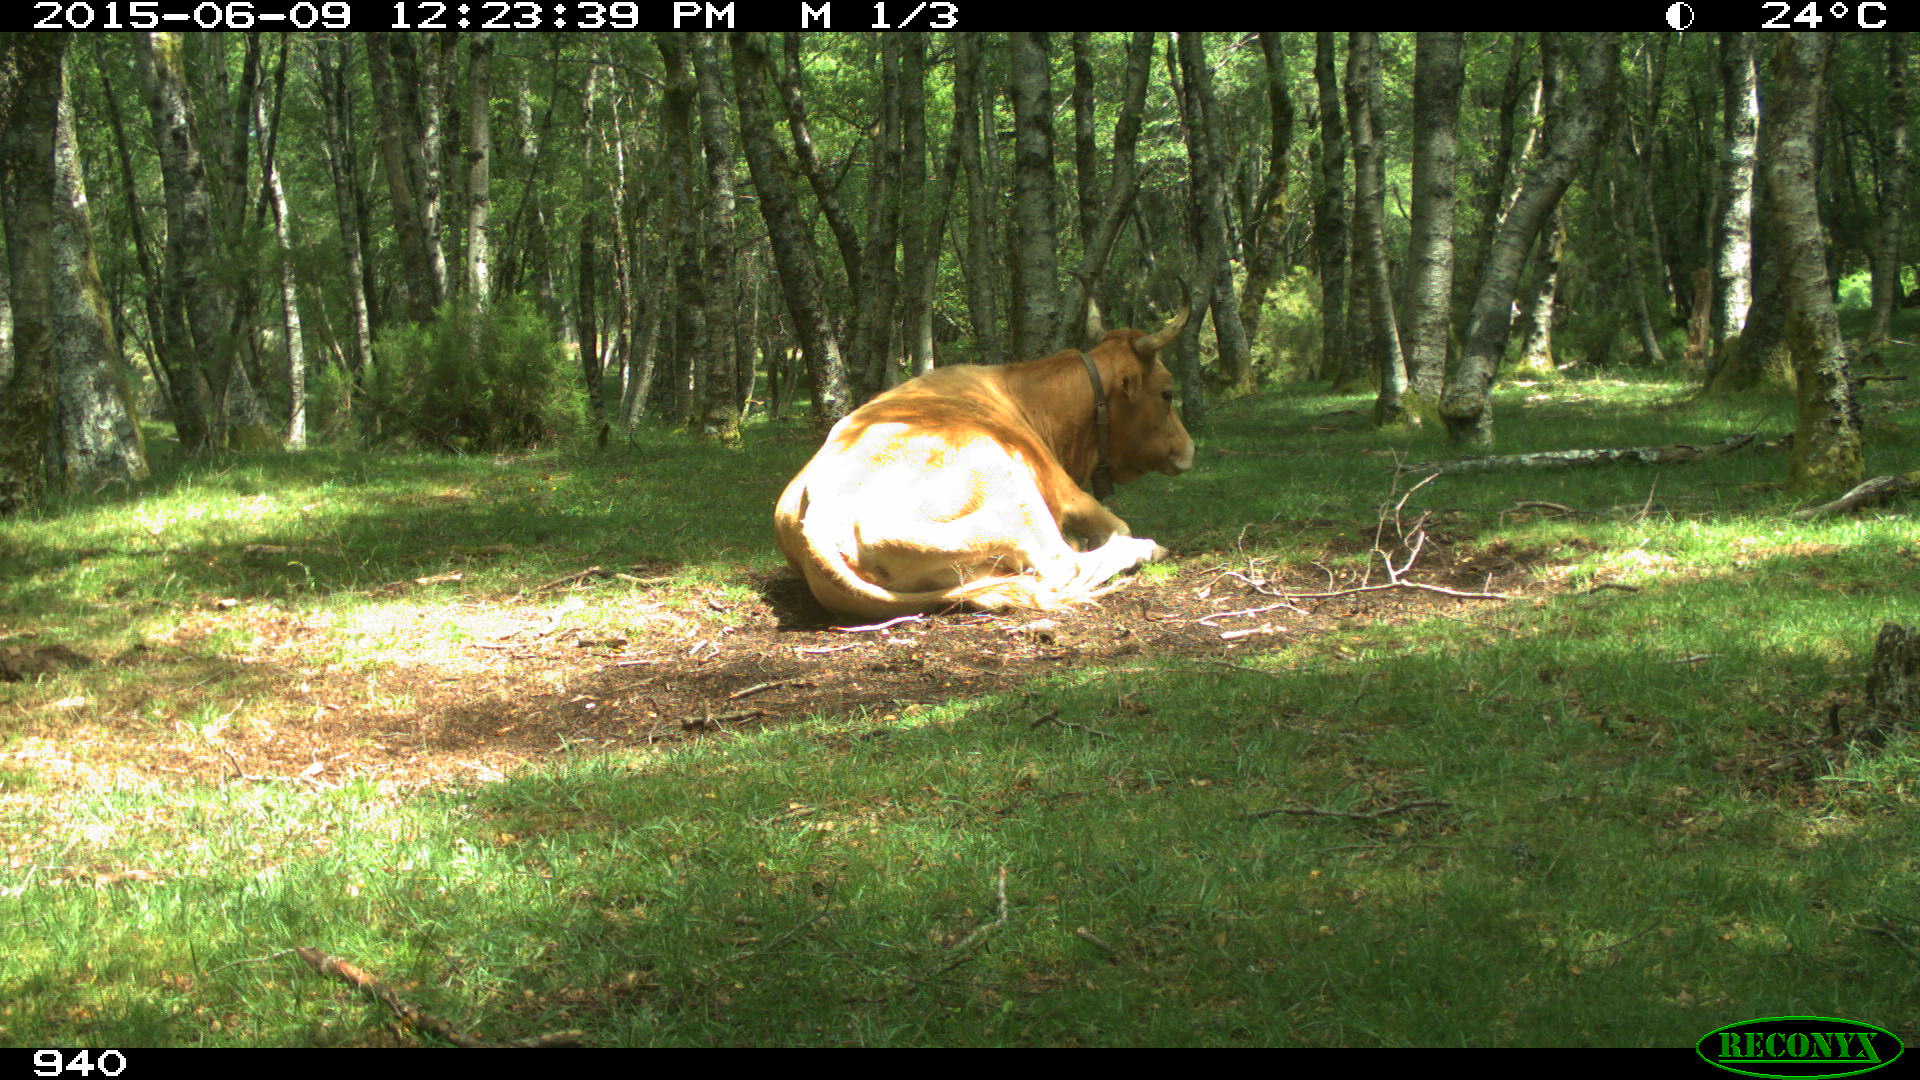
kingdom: Animalia
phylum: Chordata
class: Mammalia
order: Artiodactyla
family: Bovidae
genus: Bos
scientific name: Bos taurus
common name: Domesticated cattle
